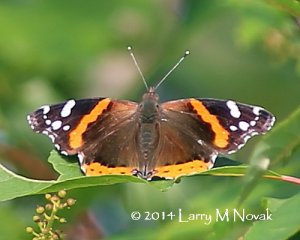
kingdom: Animalia
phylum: Arthropoda
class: Insecta
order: Lepidoptera
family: Nymphalidae
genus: Vanessa
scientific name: Vanessa atalanta
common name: Red Admiral
